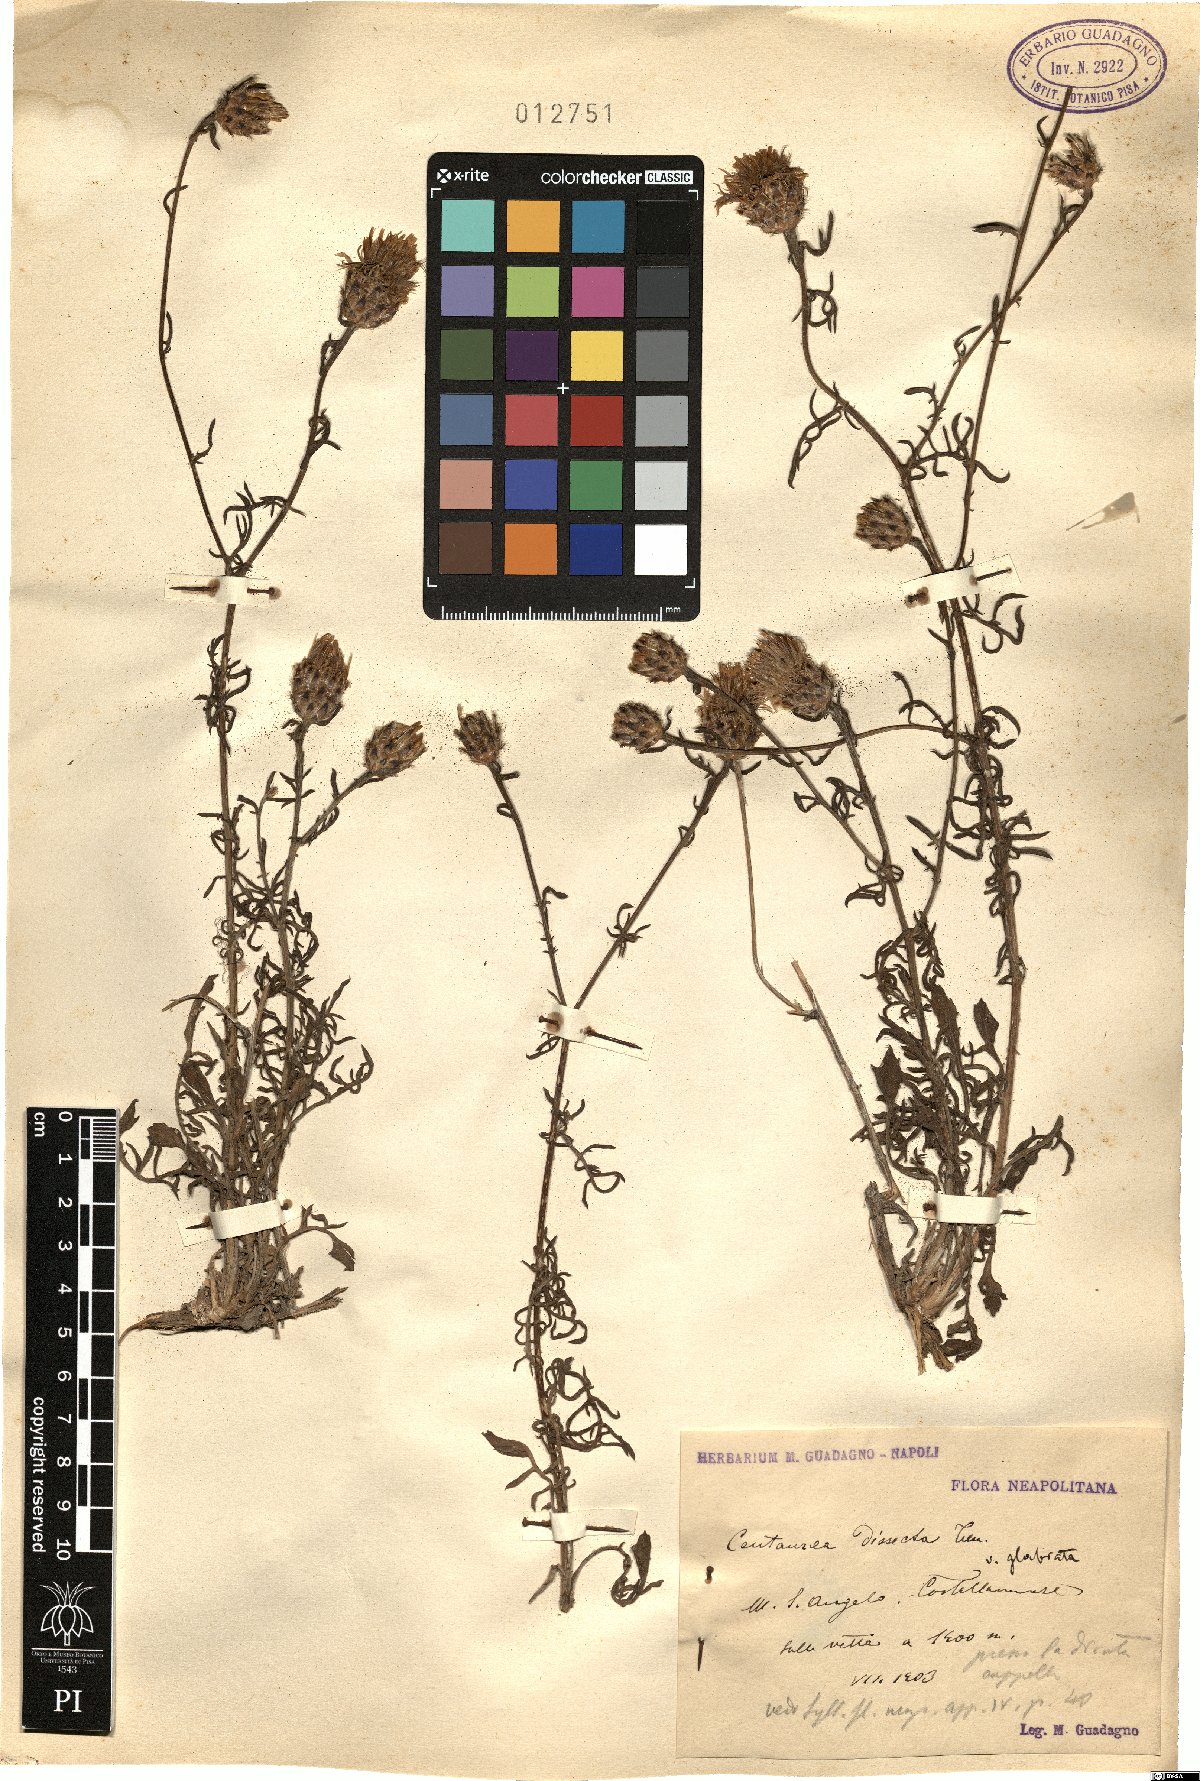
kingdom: Plantae
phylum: Tracheophyta
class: Magnoliopsida
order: Asterales
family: Asteraceae
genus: Centaurea
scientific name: Centaurea tenorei
